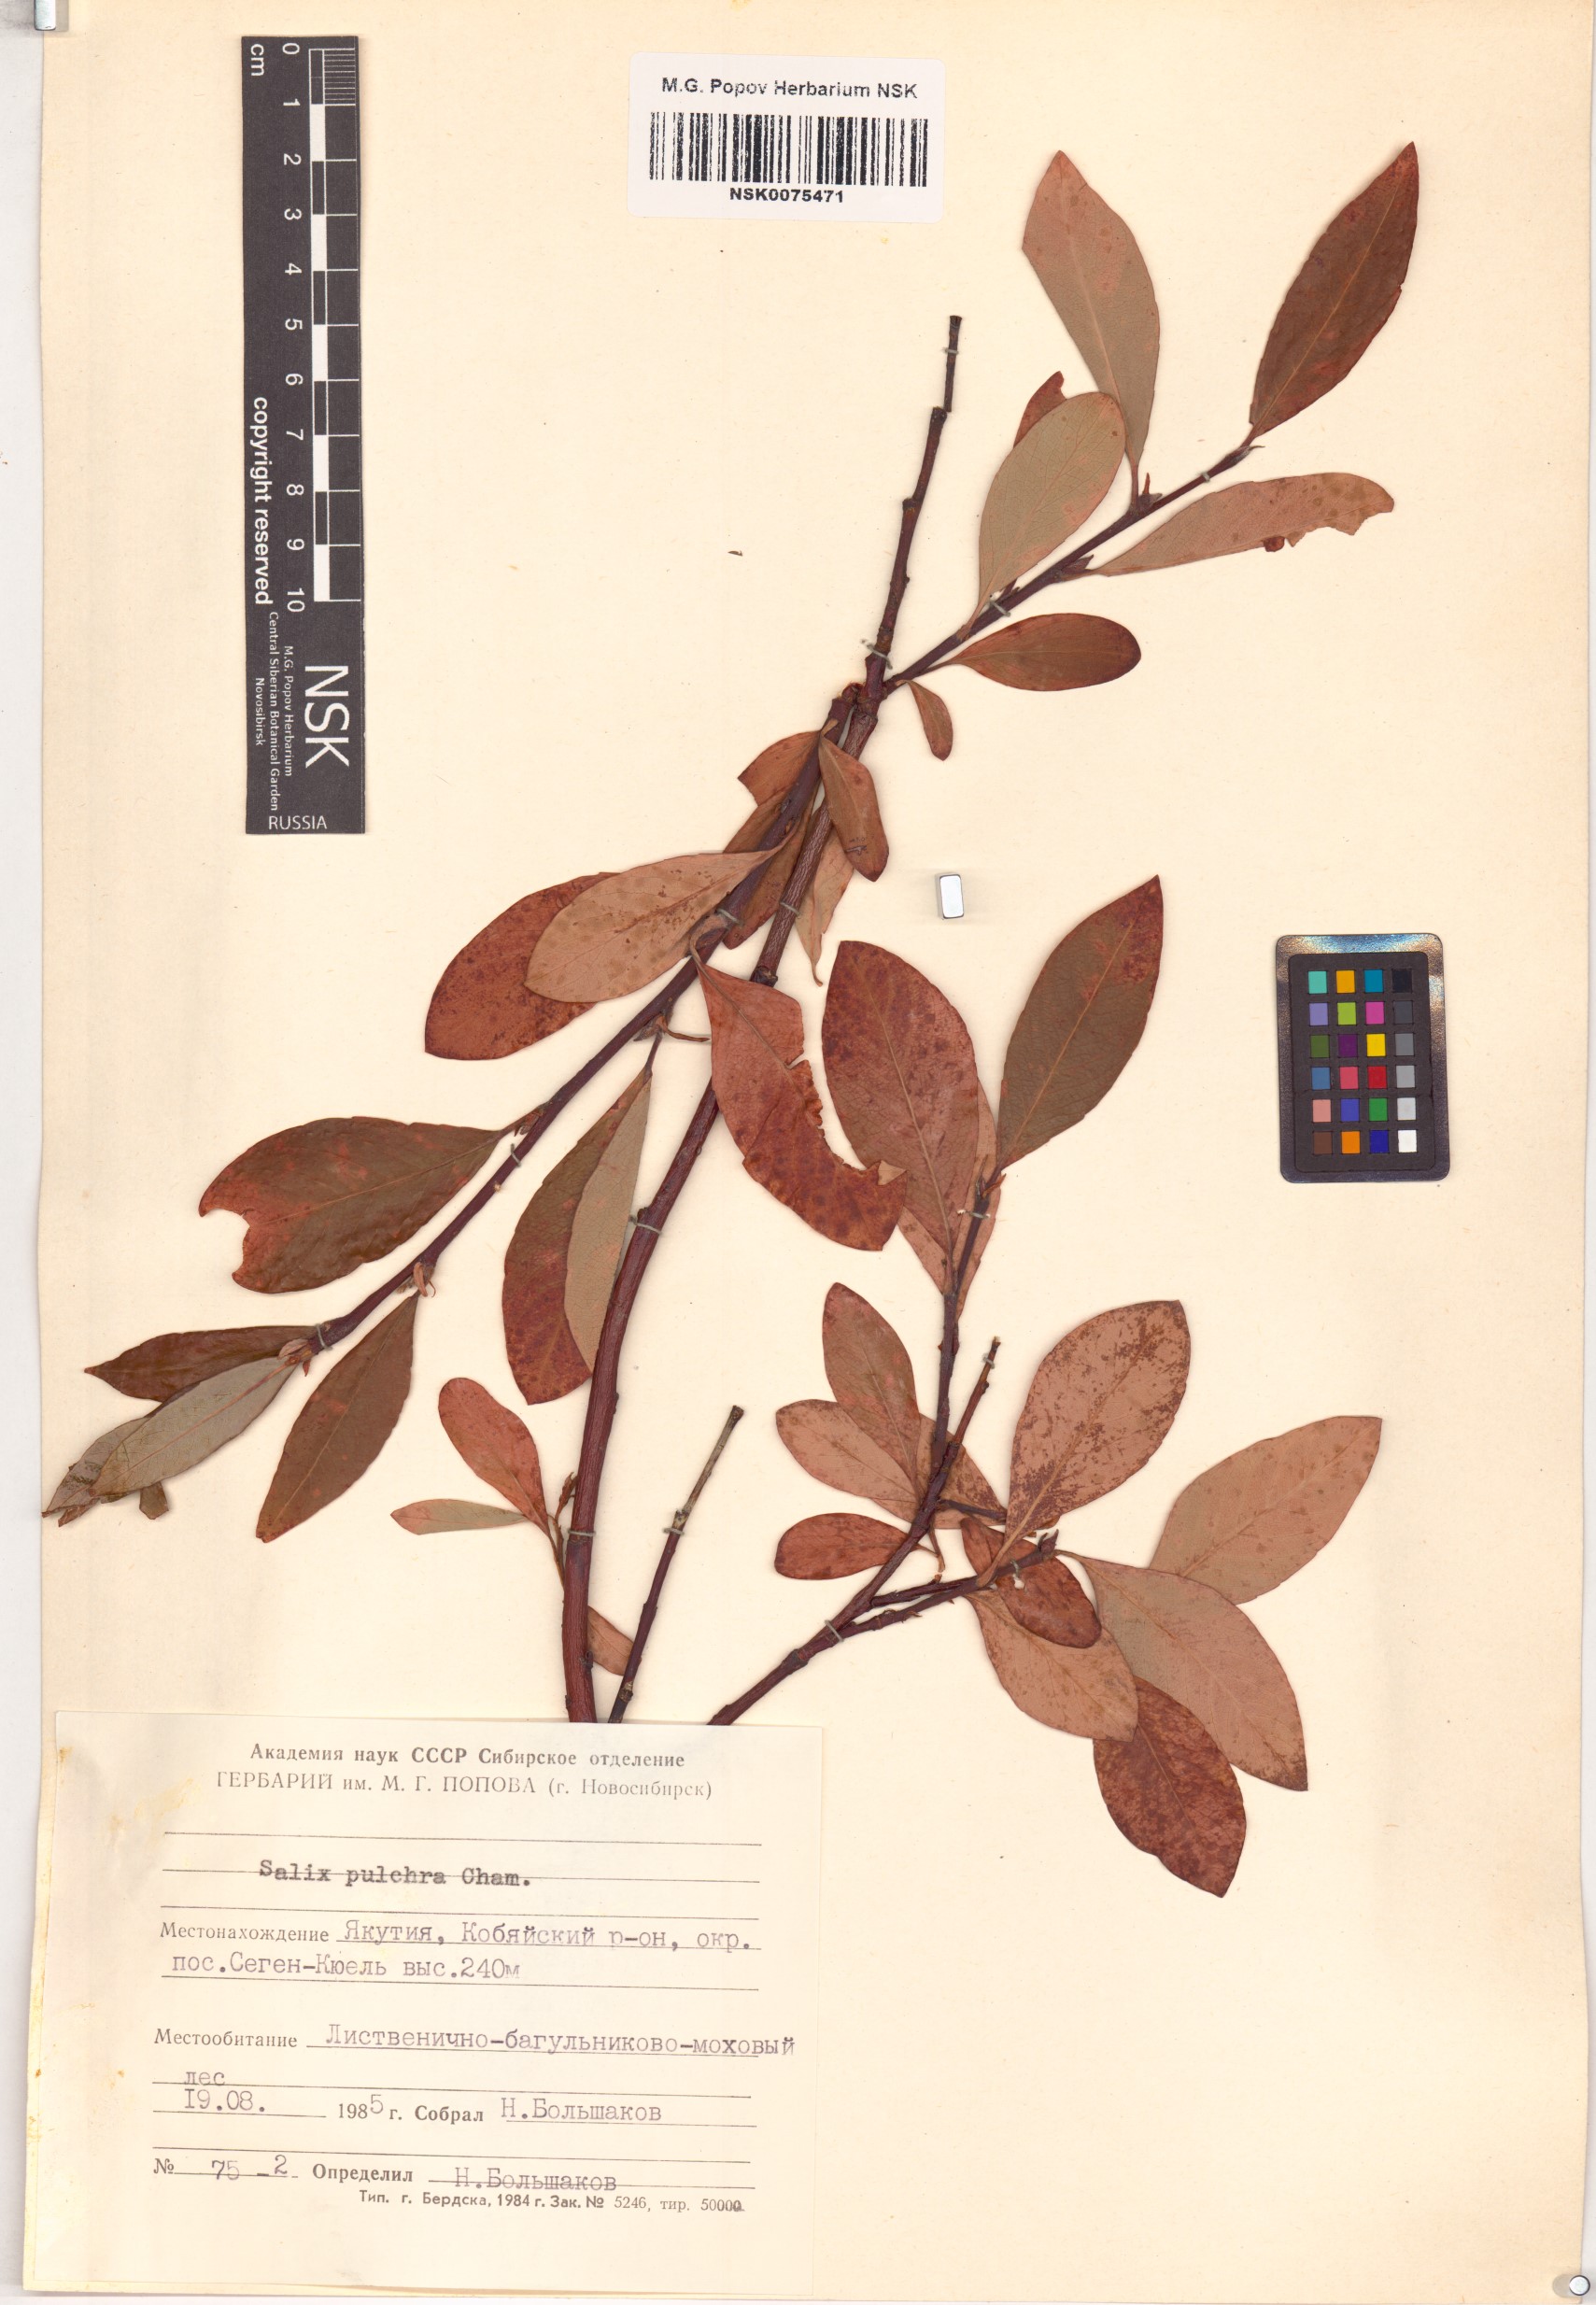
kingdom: Plantae
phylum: Tracheophyta
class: Magnoliopsida
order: Malpighiales
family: Salicaceae
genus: Salix
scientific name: Salix pulchra
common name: Diamond-leaved willow
